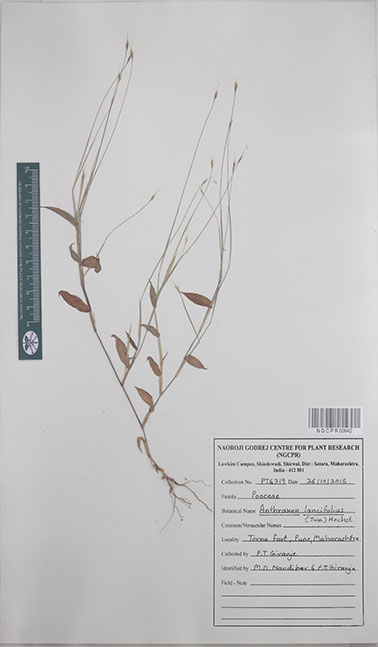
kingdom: Plantae
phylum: Tracheophyta
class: Liliopsida
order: Poales
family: Poaceae
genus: Arthraxon
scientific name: Arthraxon lancifolius
